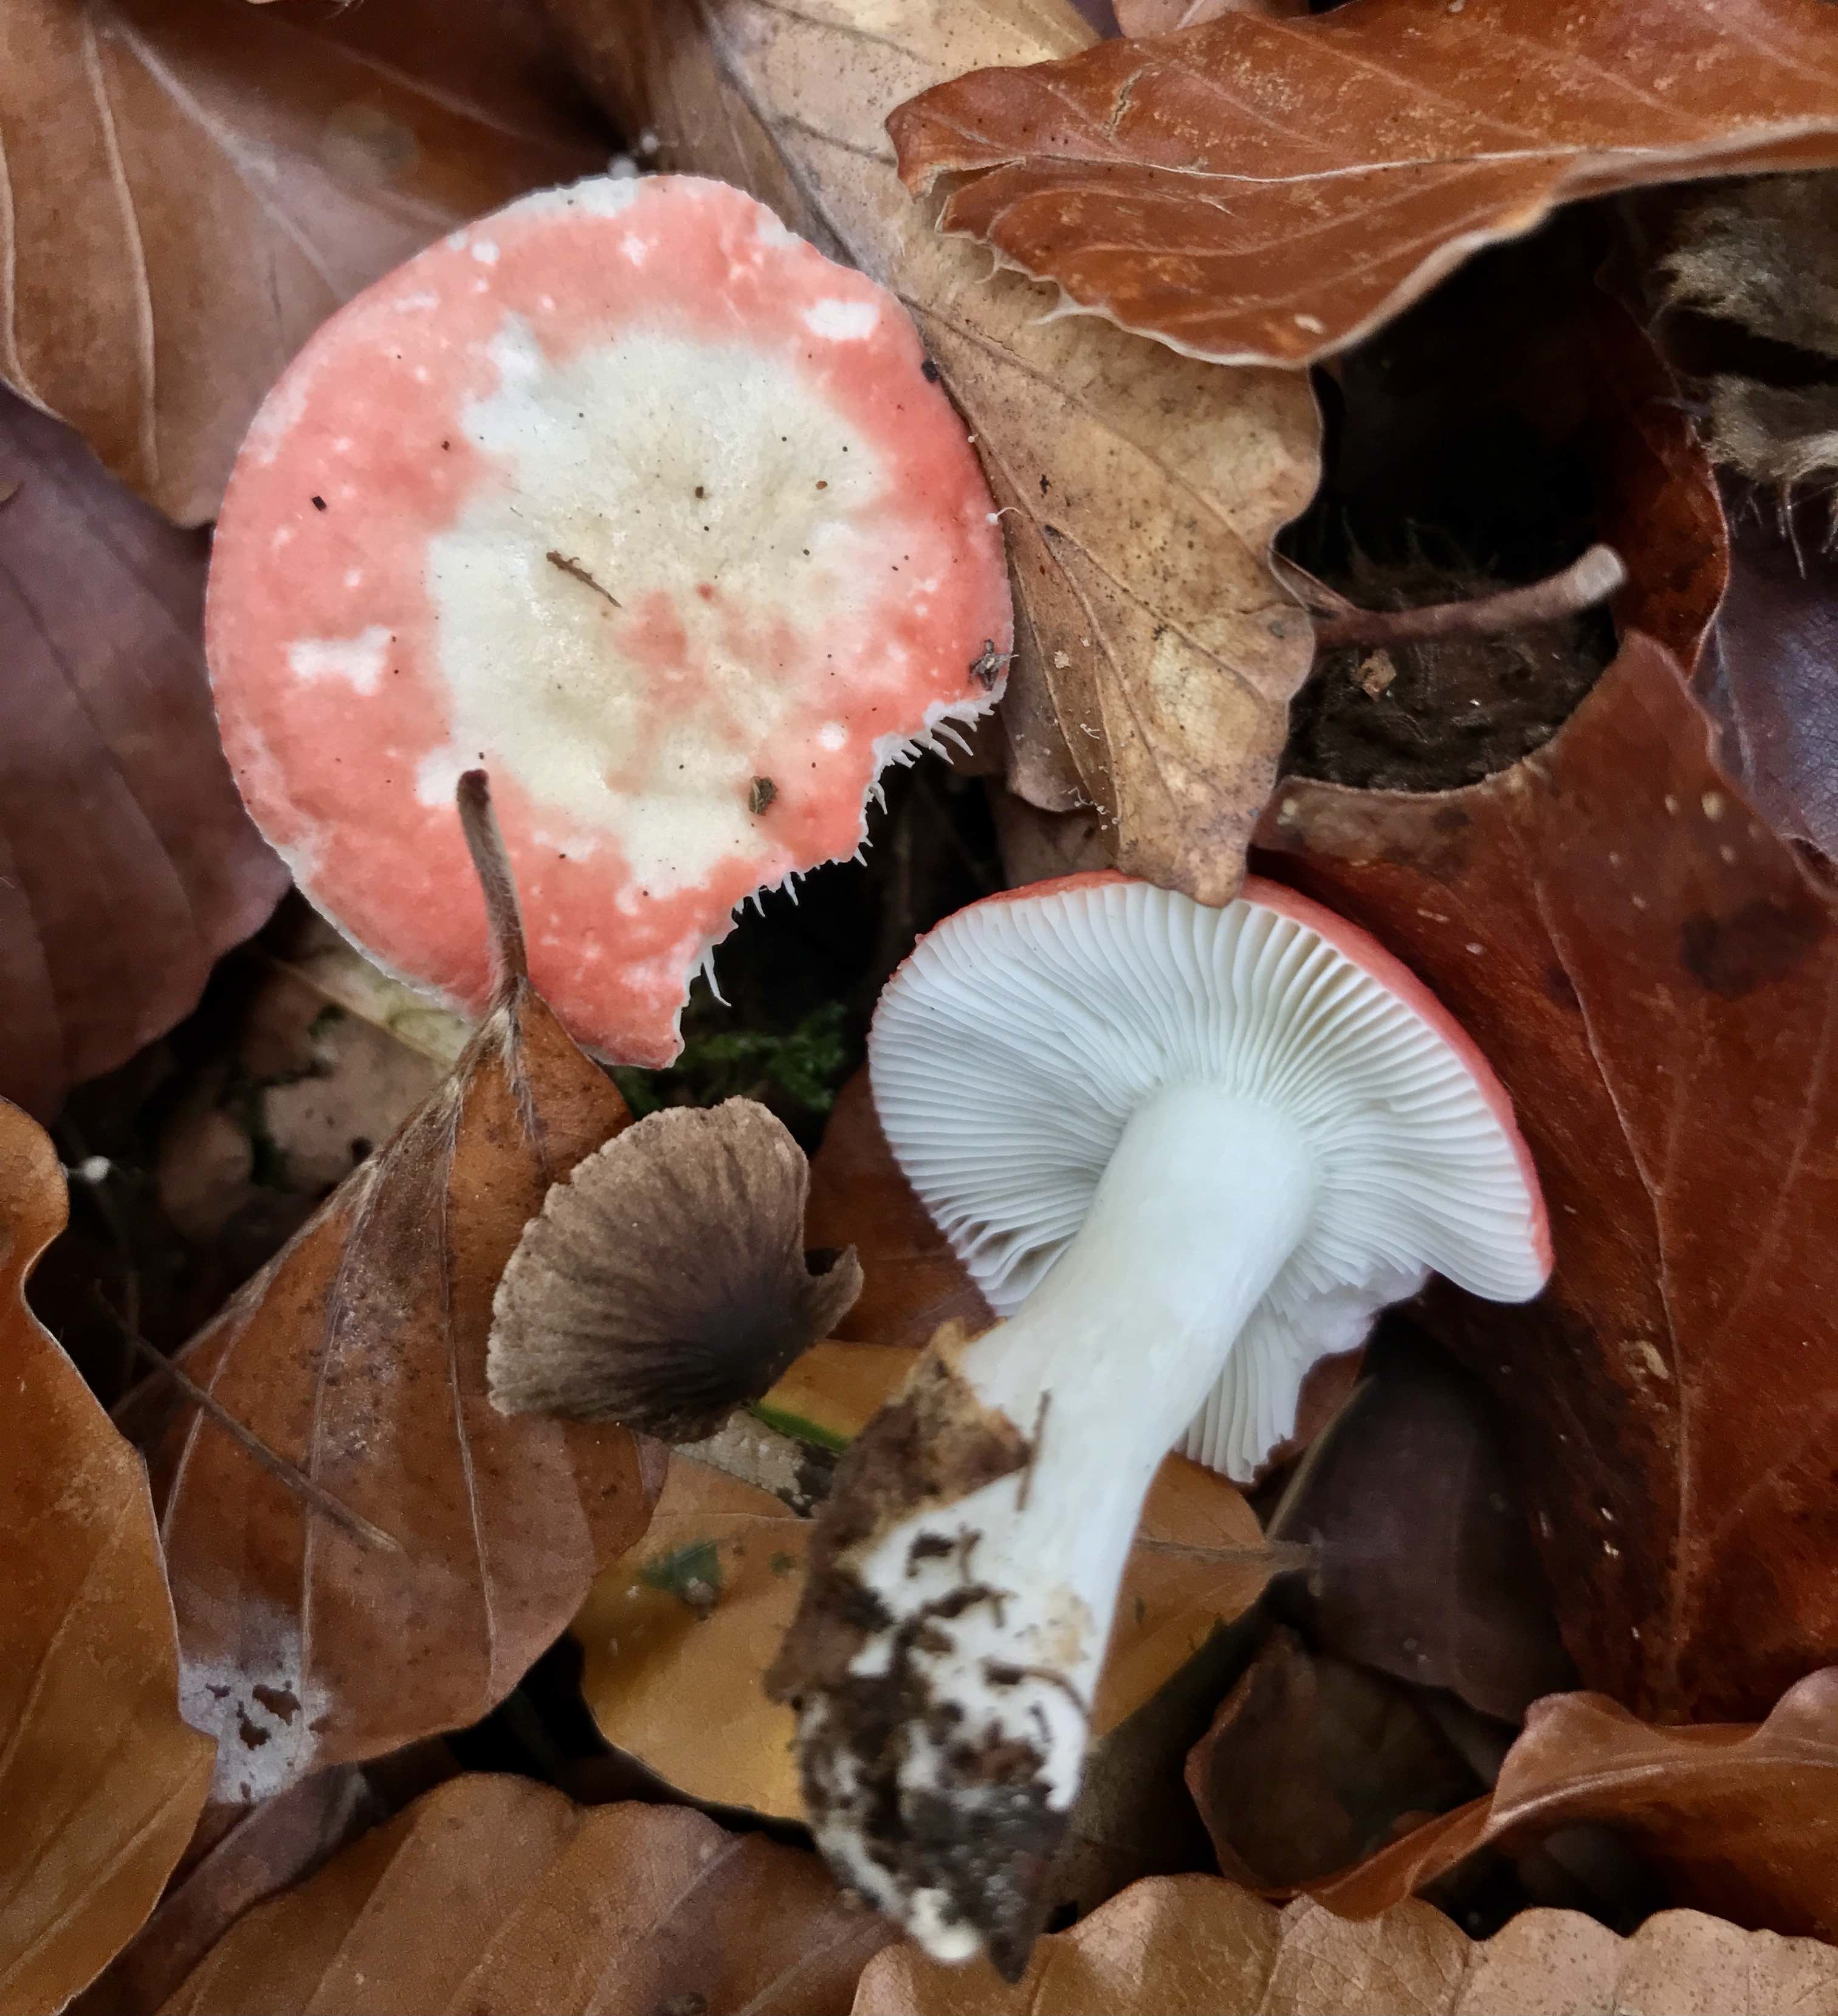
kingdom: Fungi
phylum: Basidiomycota
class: Agaricomycetes
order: Russulales
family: Russulaceae
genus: Russula
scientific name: Russula nobilis
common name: lille gift-skørhat
